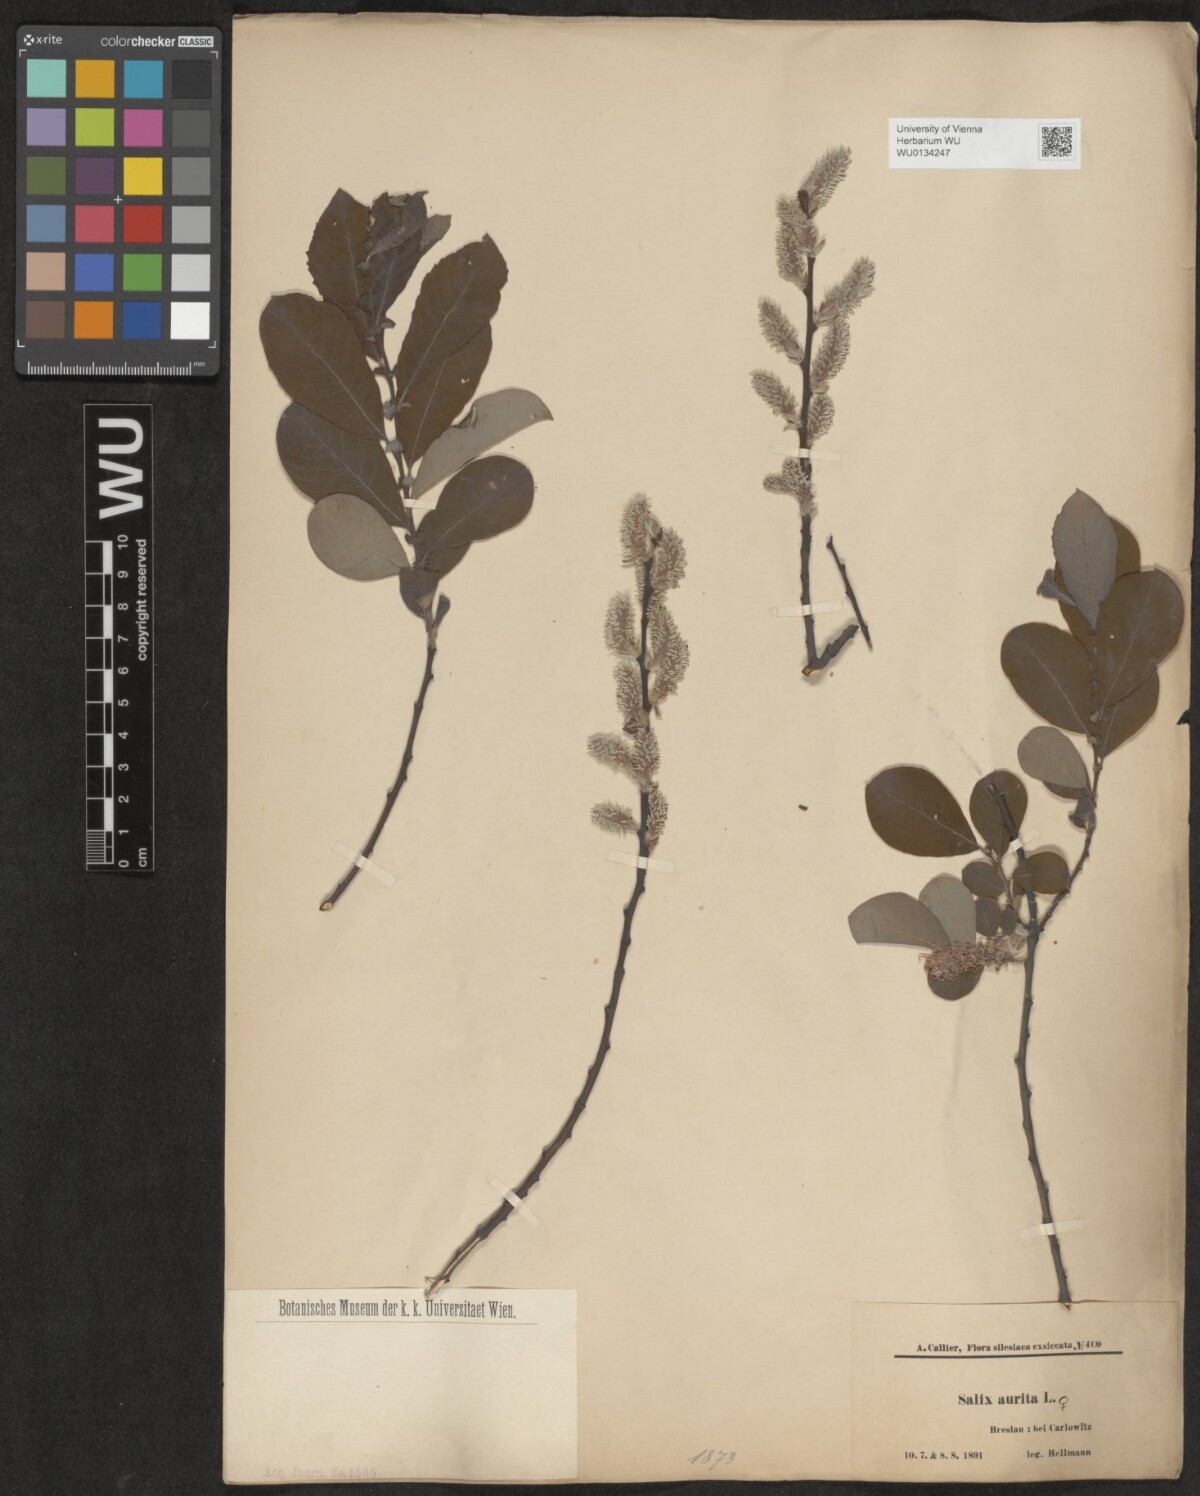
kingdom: Plantae
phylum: Tracheophyta
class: Magnoliopsida
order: Malpighiales
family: Salicaceae
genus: Salix
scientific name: Salix aurita
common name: Eared willow
